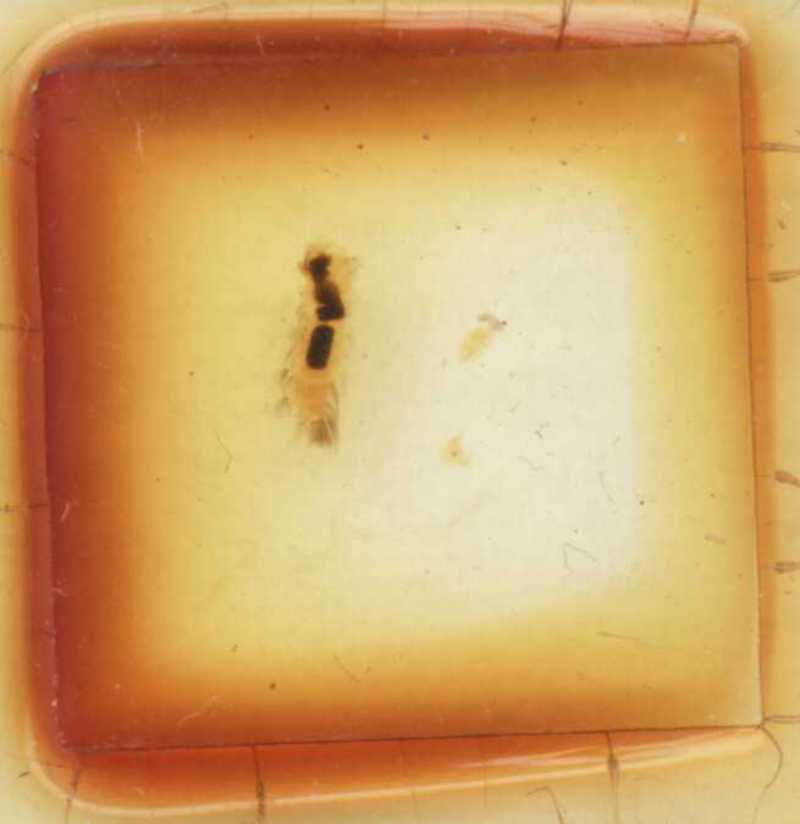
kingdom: Animalia
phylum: Arthropoda
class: Diplopoda
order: Polyxenida
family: Lophoproctidae
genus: Lophoproctus
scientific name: Lophoproctus lucidus
